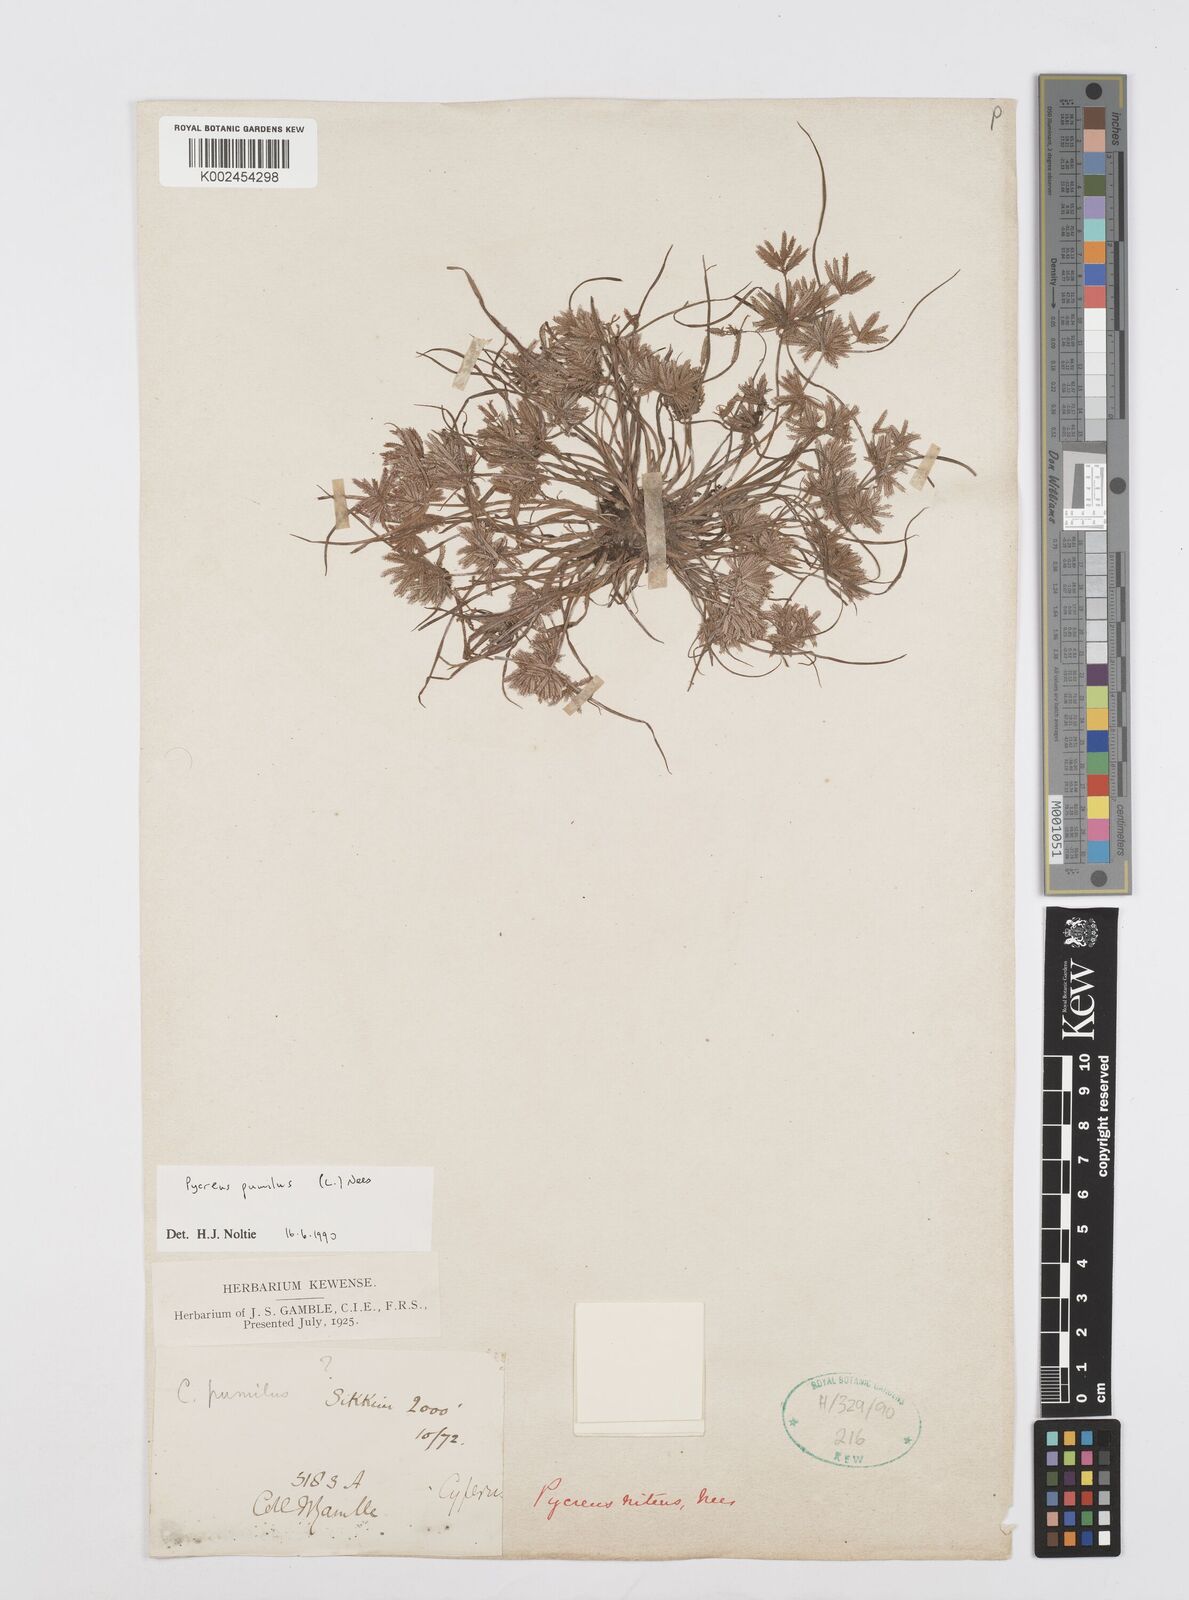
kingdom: Plantae
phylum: Tracheophyta
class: Liliopsida
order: Poales
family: Cyperaceae
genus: Cyperus
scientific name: Cyperus pumilus
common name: Low flatsedge
